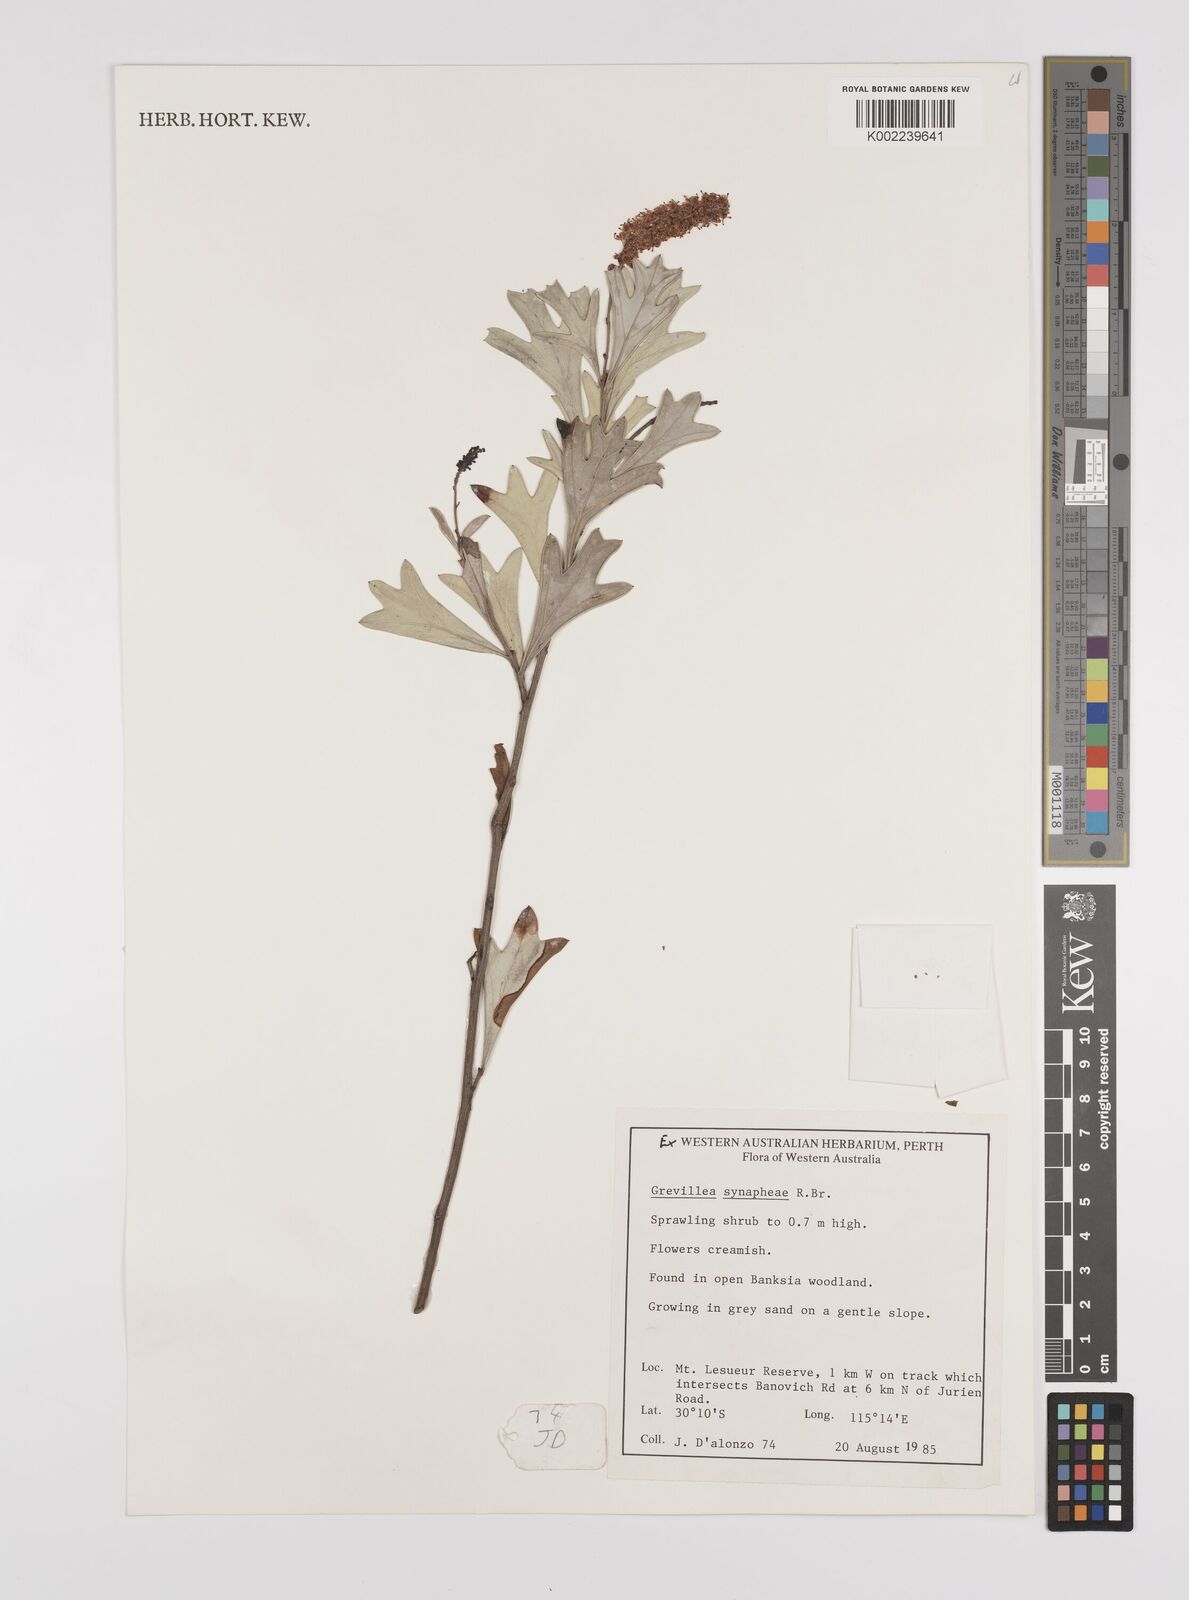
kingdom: Plantae
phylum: Tracheophyta
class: Magnoliopsida
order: Proteales
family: Proteaceae
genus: Grevillea
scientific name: Grevillea synaphea
